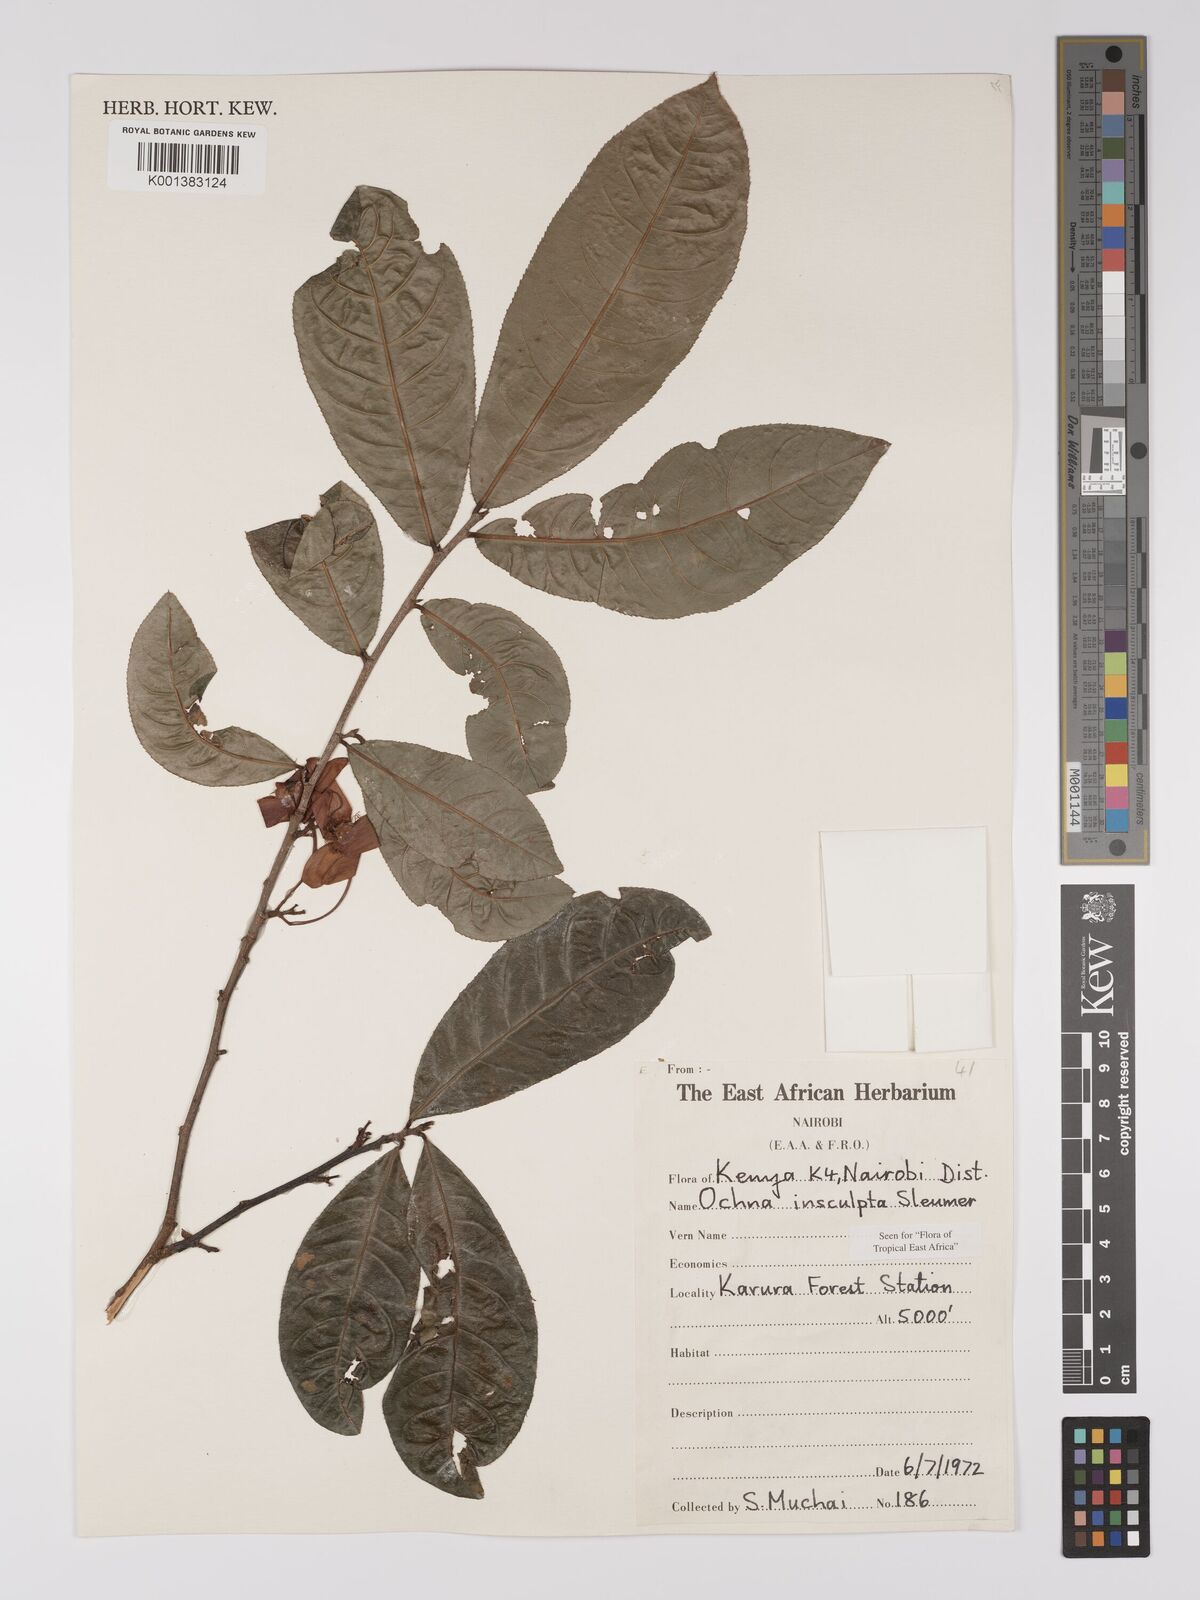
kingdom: Plantae
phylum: Tracheophyta
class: Magnoliopsida
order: Malpighiales
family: Ochnaceae
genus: Ochna
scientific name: Ochna insculpta
